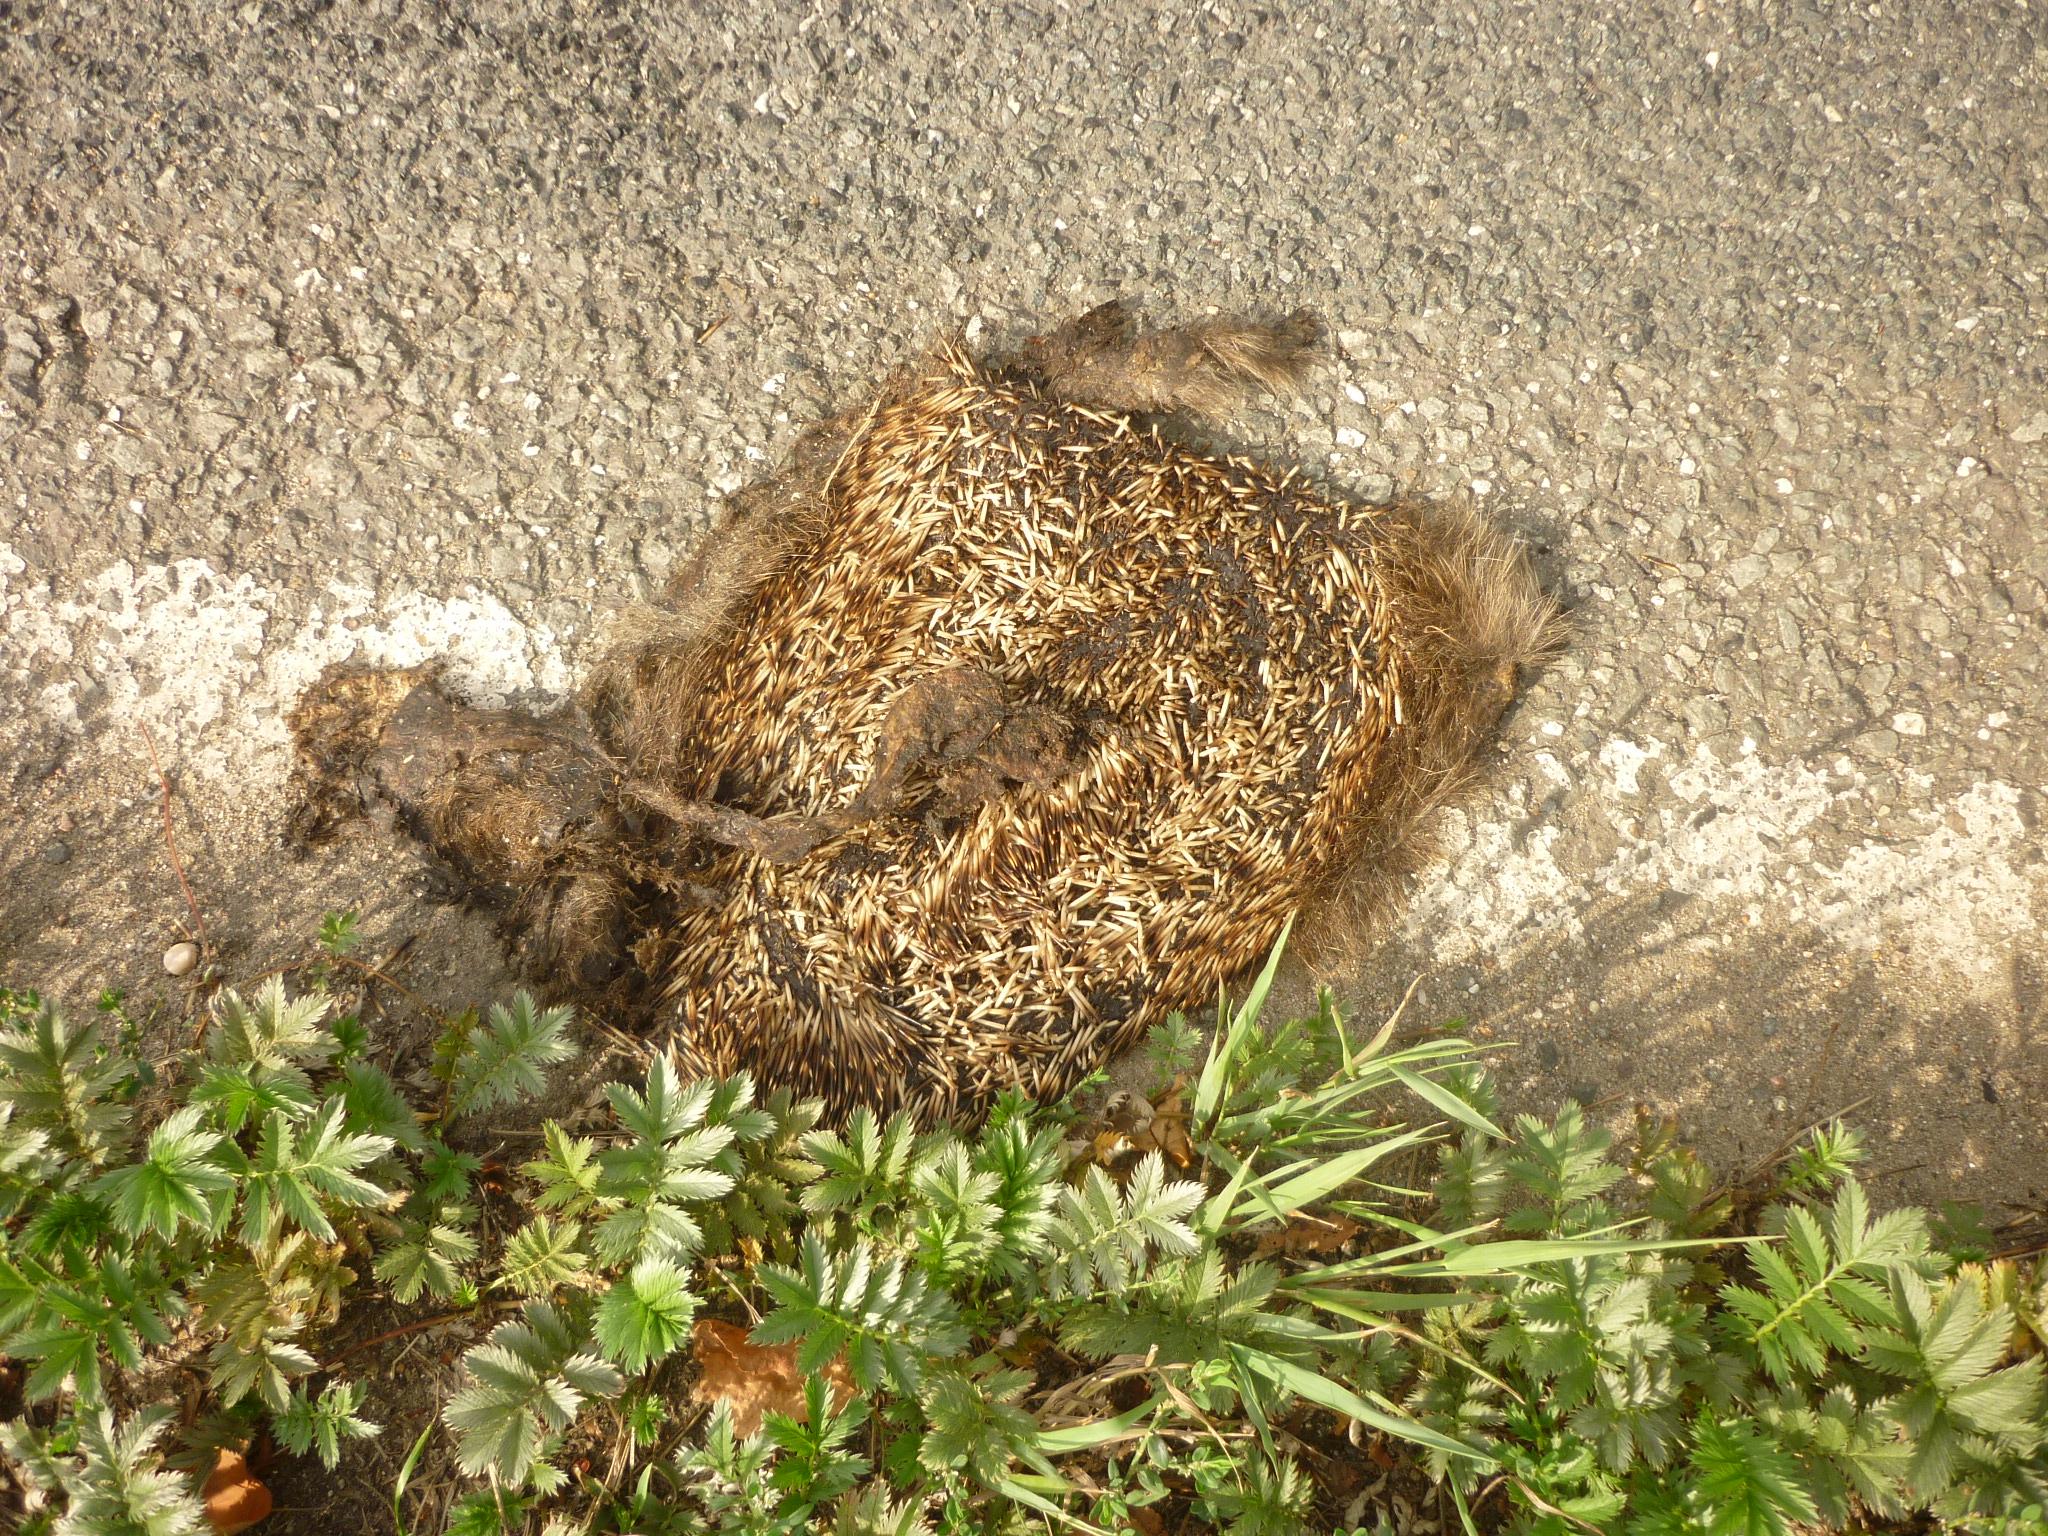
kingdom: Animalia
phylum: Chordata
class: Mammalia
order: Erinaceomorpha
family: Erinaceidae
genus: Erinaceus
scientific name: Erinaceus
